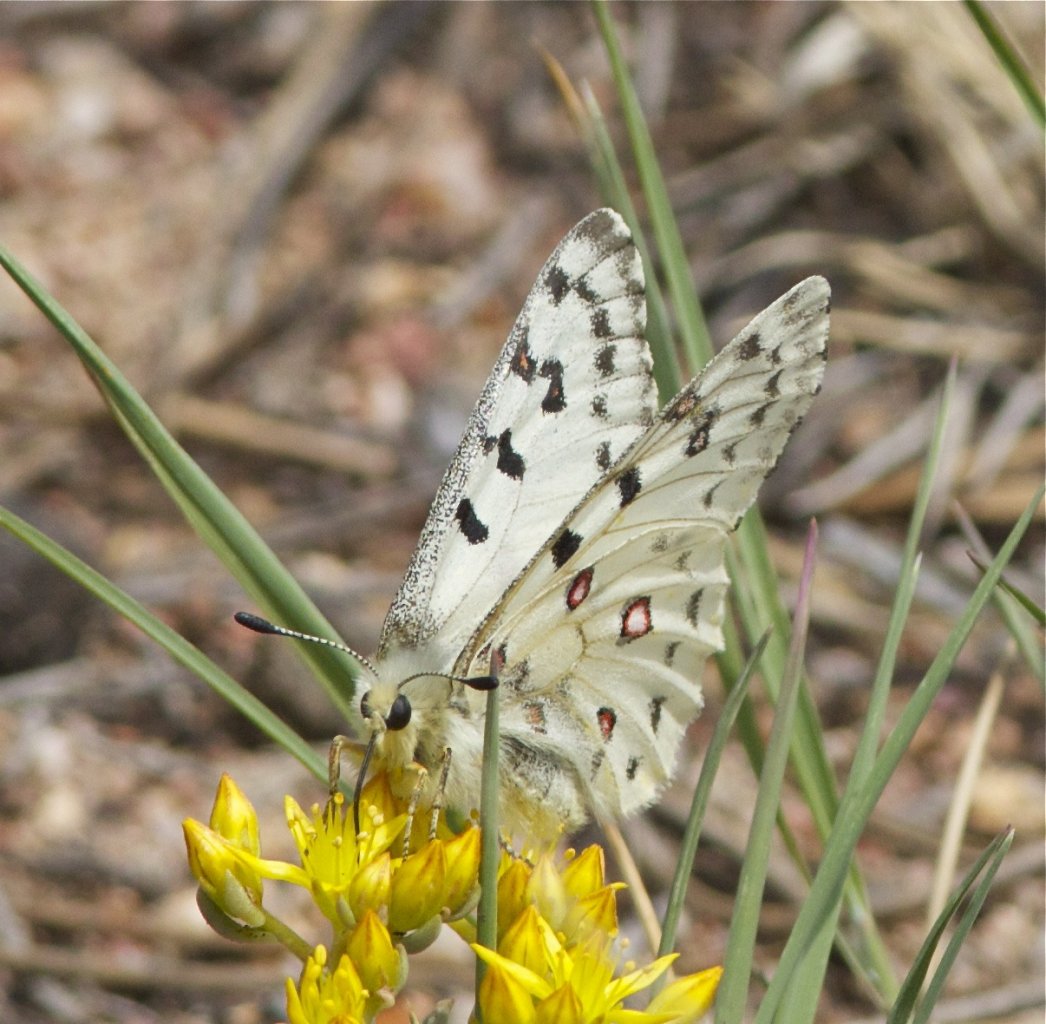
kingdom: Animalia
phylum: Arthropoda
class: Insecta
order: Lepidoptera
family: Papilionidae
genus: Parnassius
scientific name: Parnassius smintheus
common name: Rocky Mountain Parnassian
